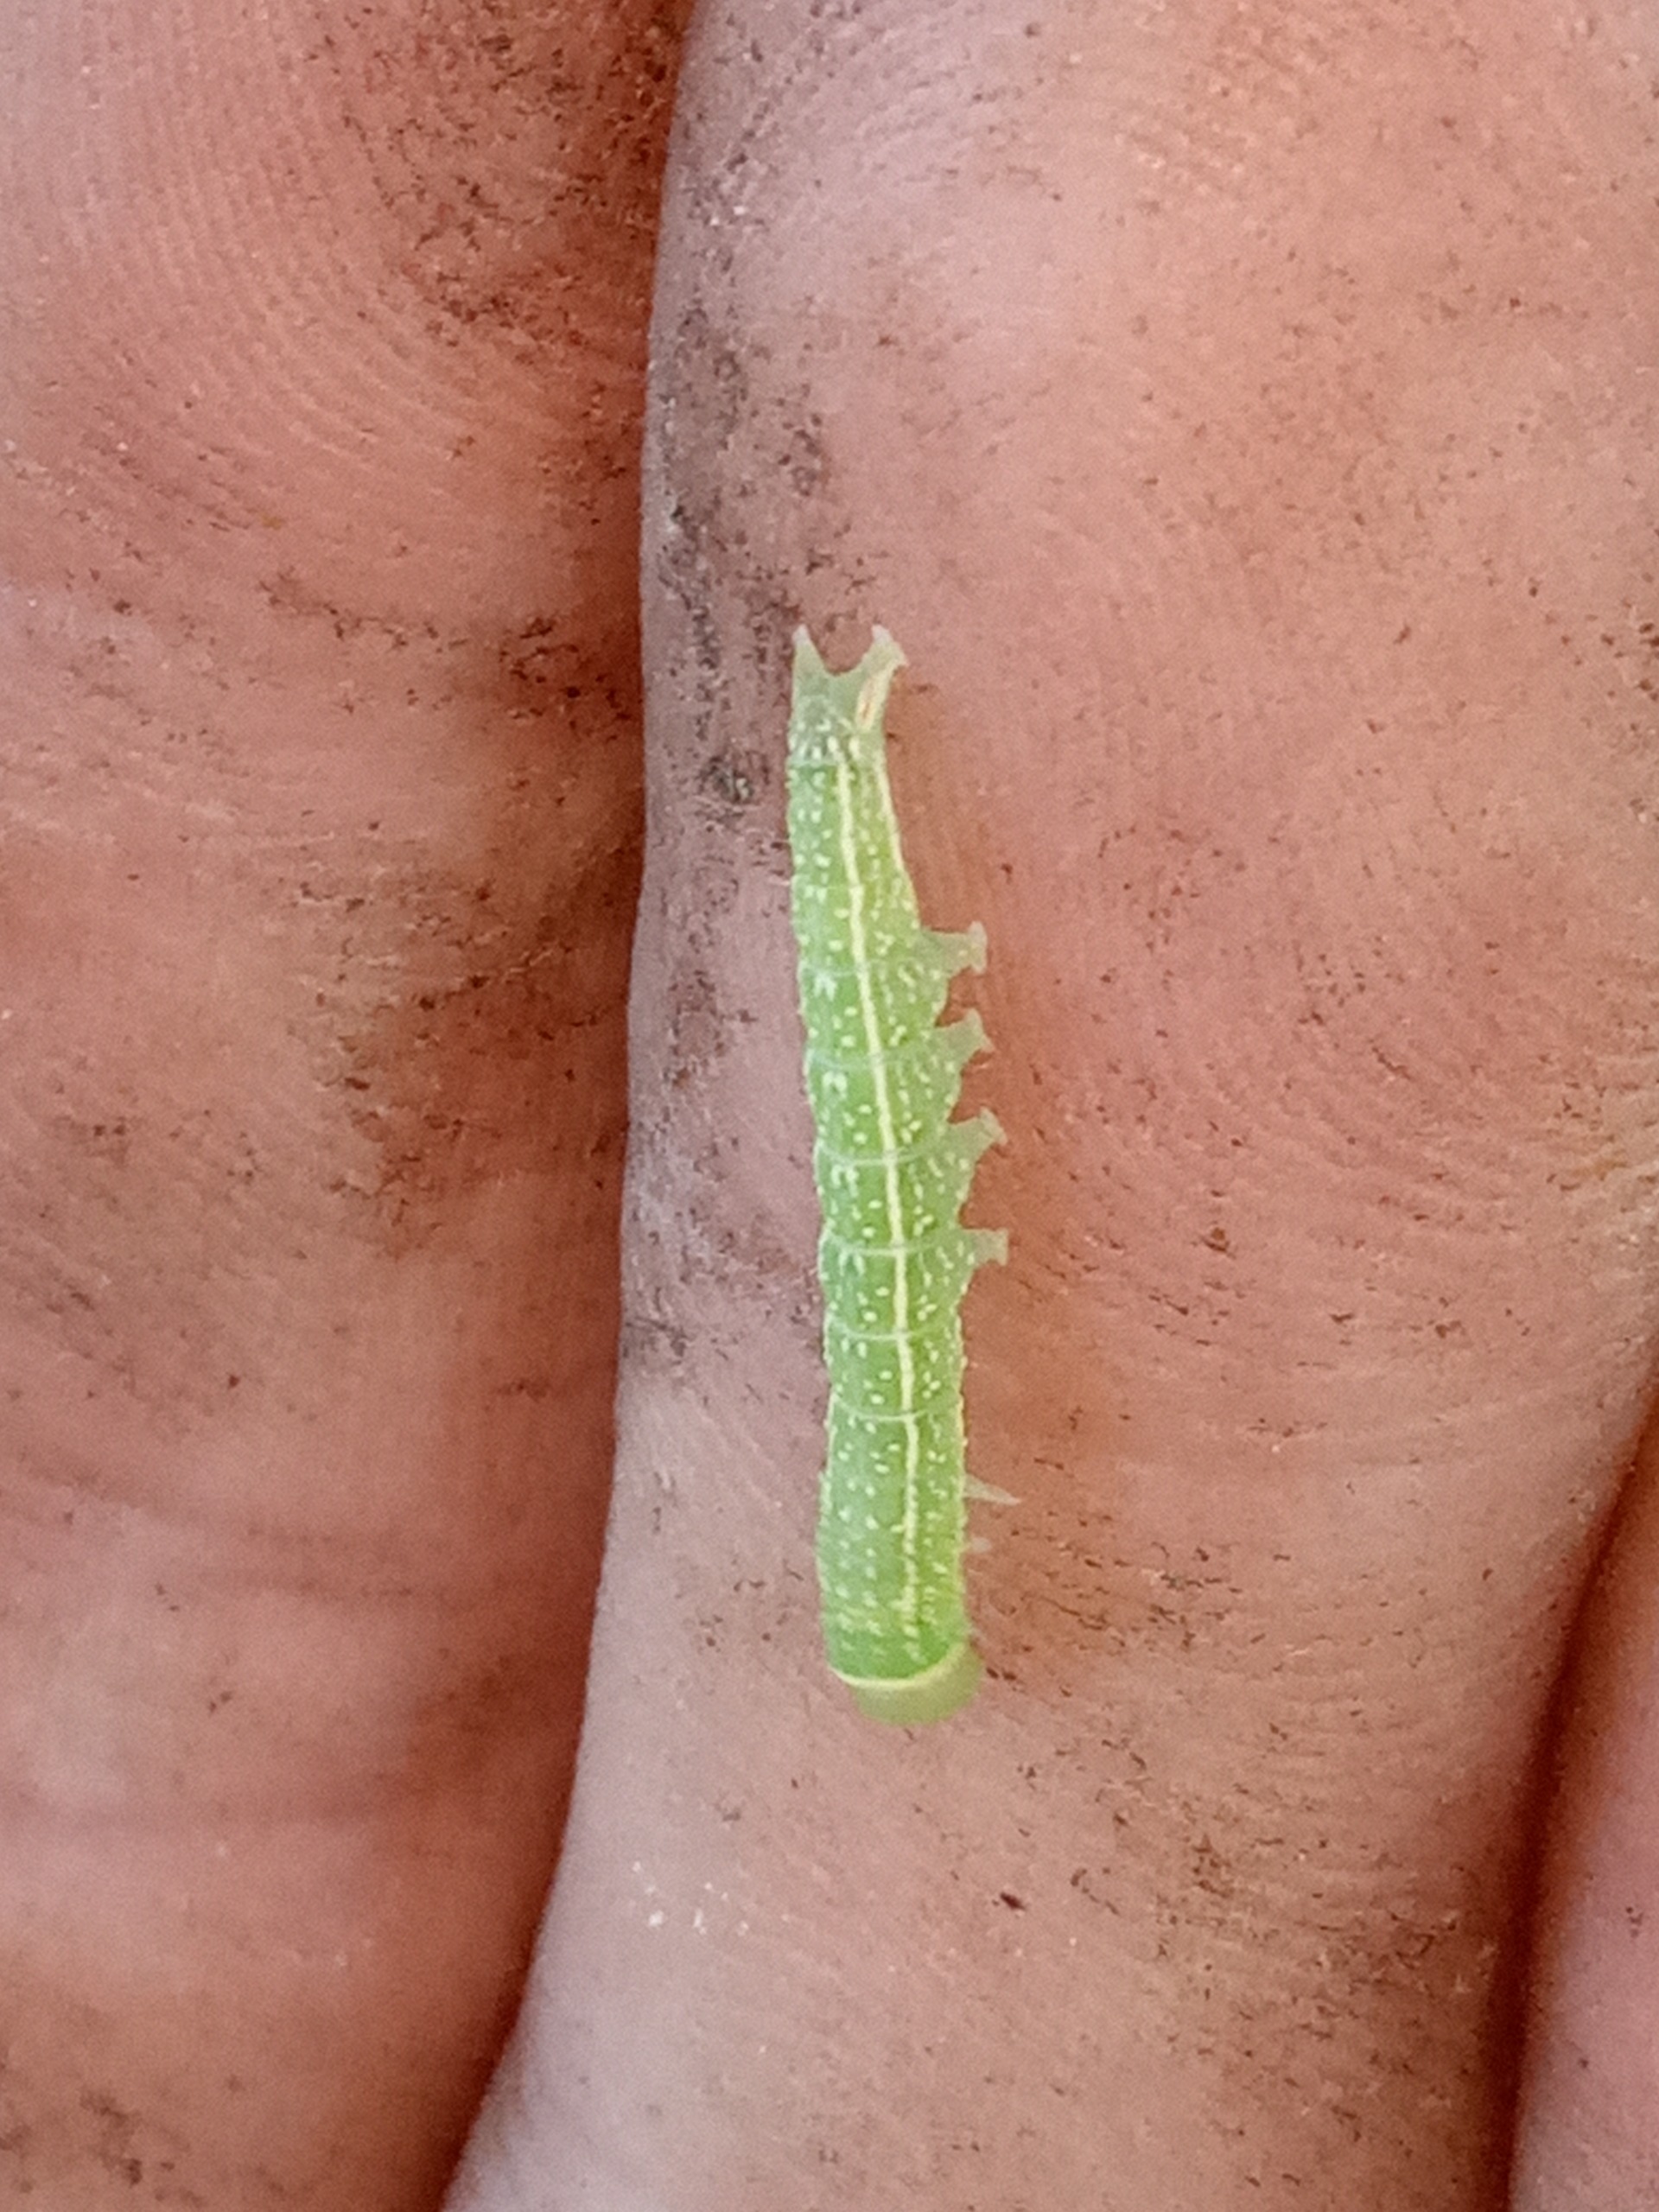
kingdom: Animalia
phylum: Arthropoda
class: Insecta
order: Lepidoptera
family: Nolidae
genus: Pseudoips
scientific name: Pseudoips prasinana
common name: Grøn bøgeugle
